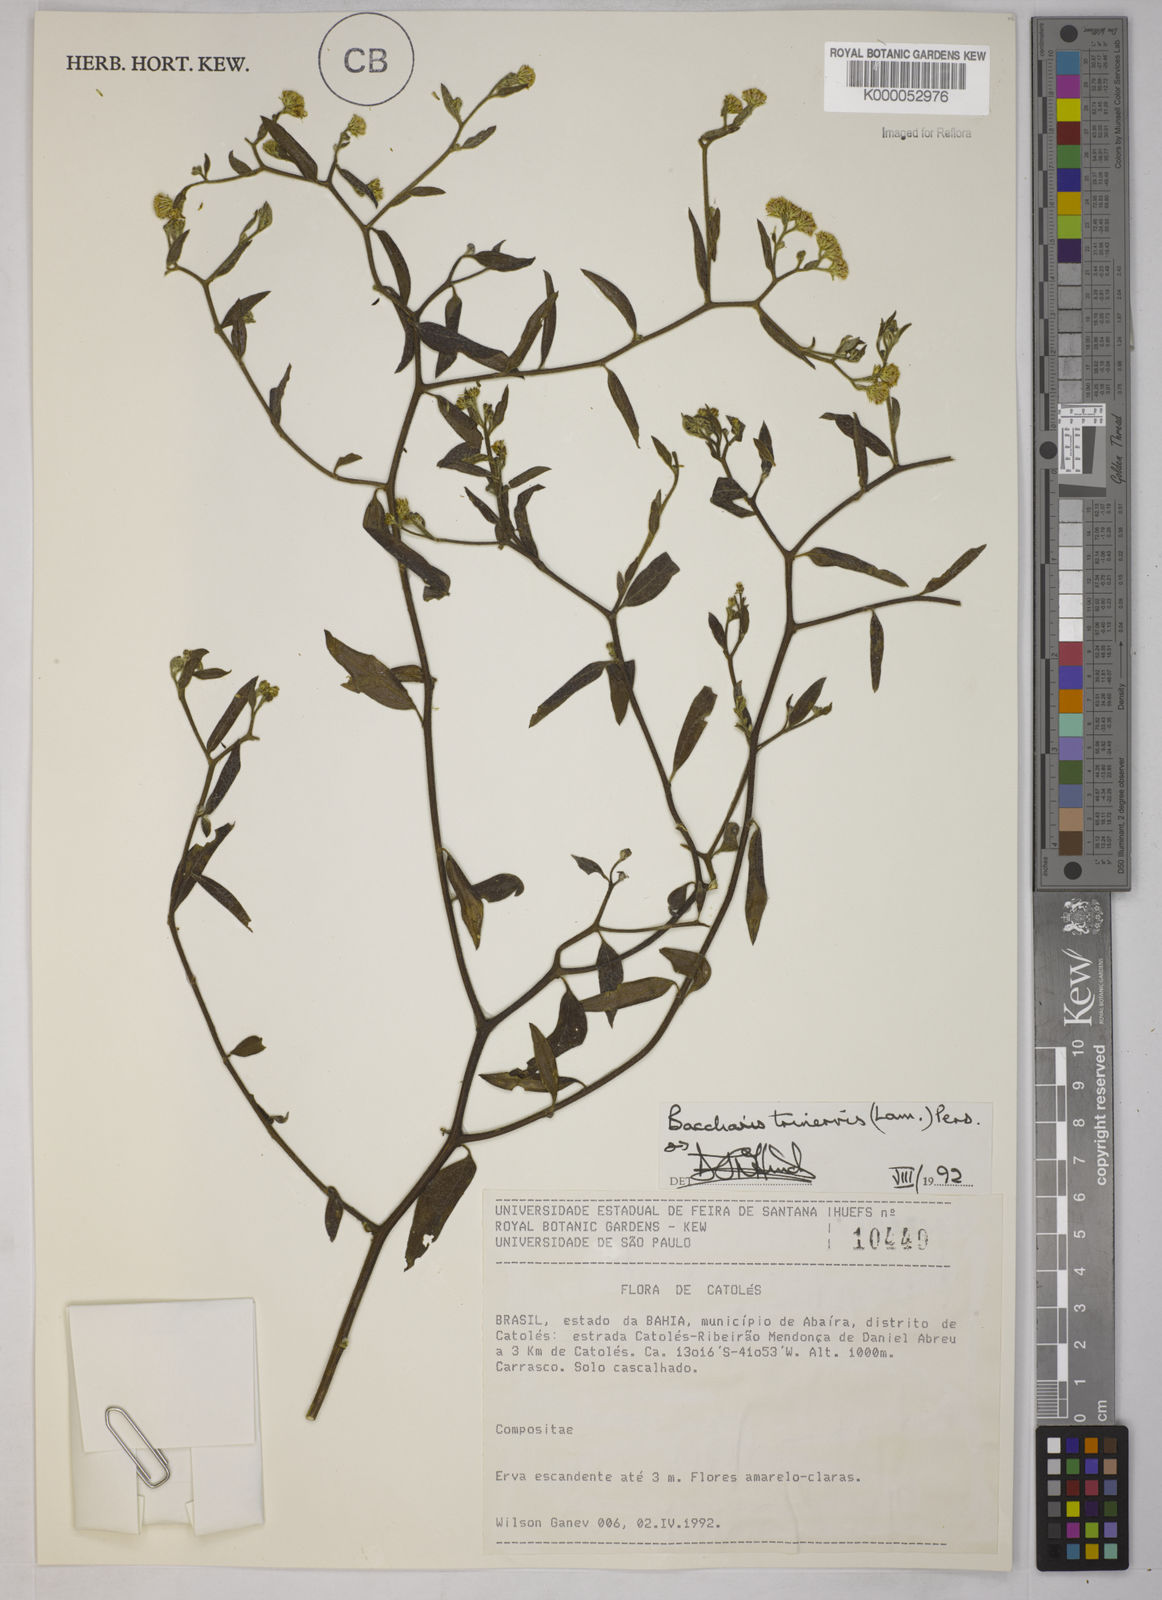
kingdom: Plantae
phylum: Tracheophyta
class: Magnoliopsida
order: Asterales
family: Asteraceae
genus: Baccharis
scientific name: Baccharis trinervis
